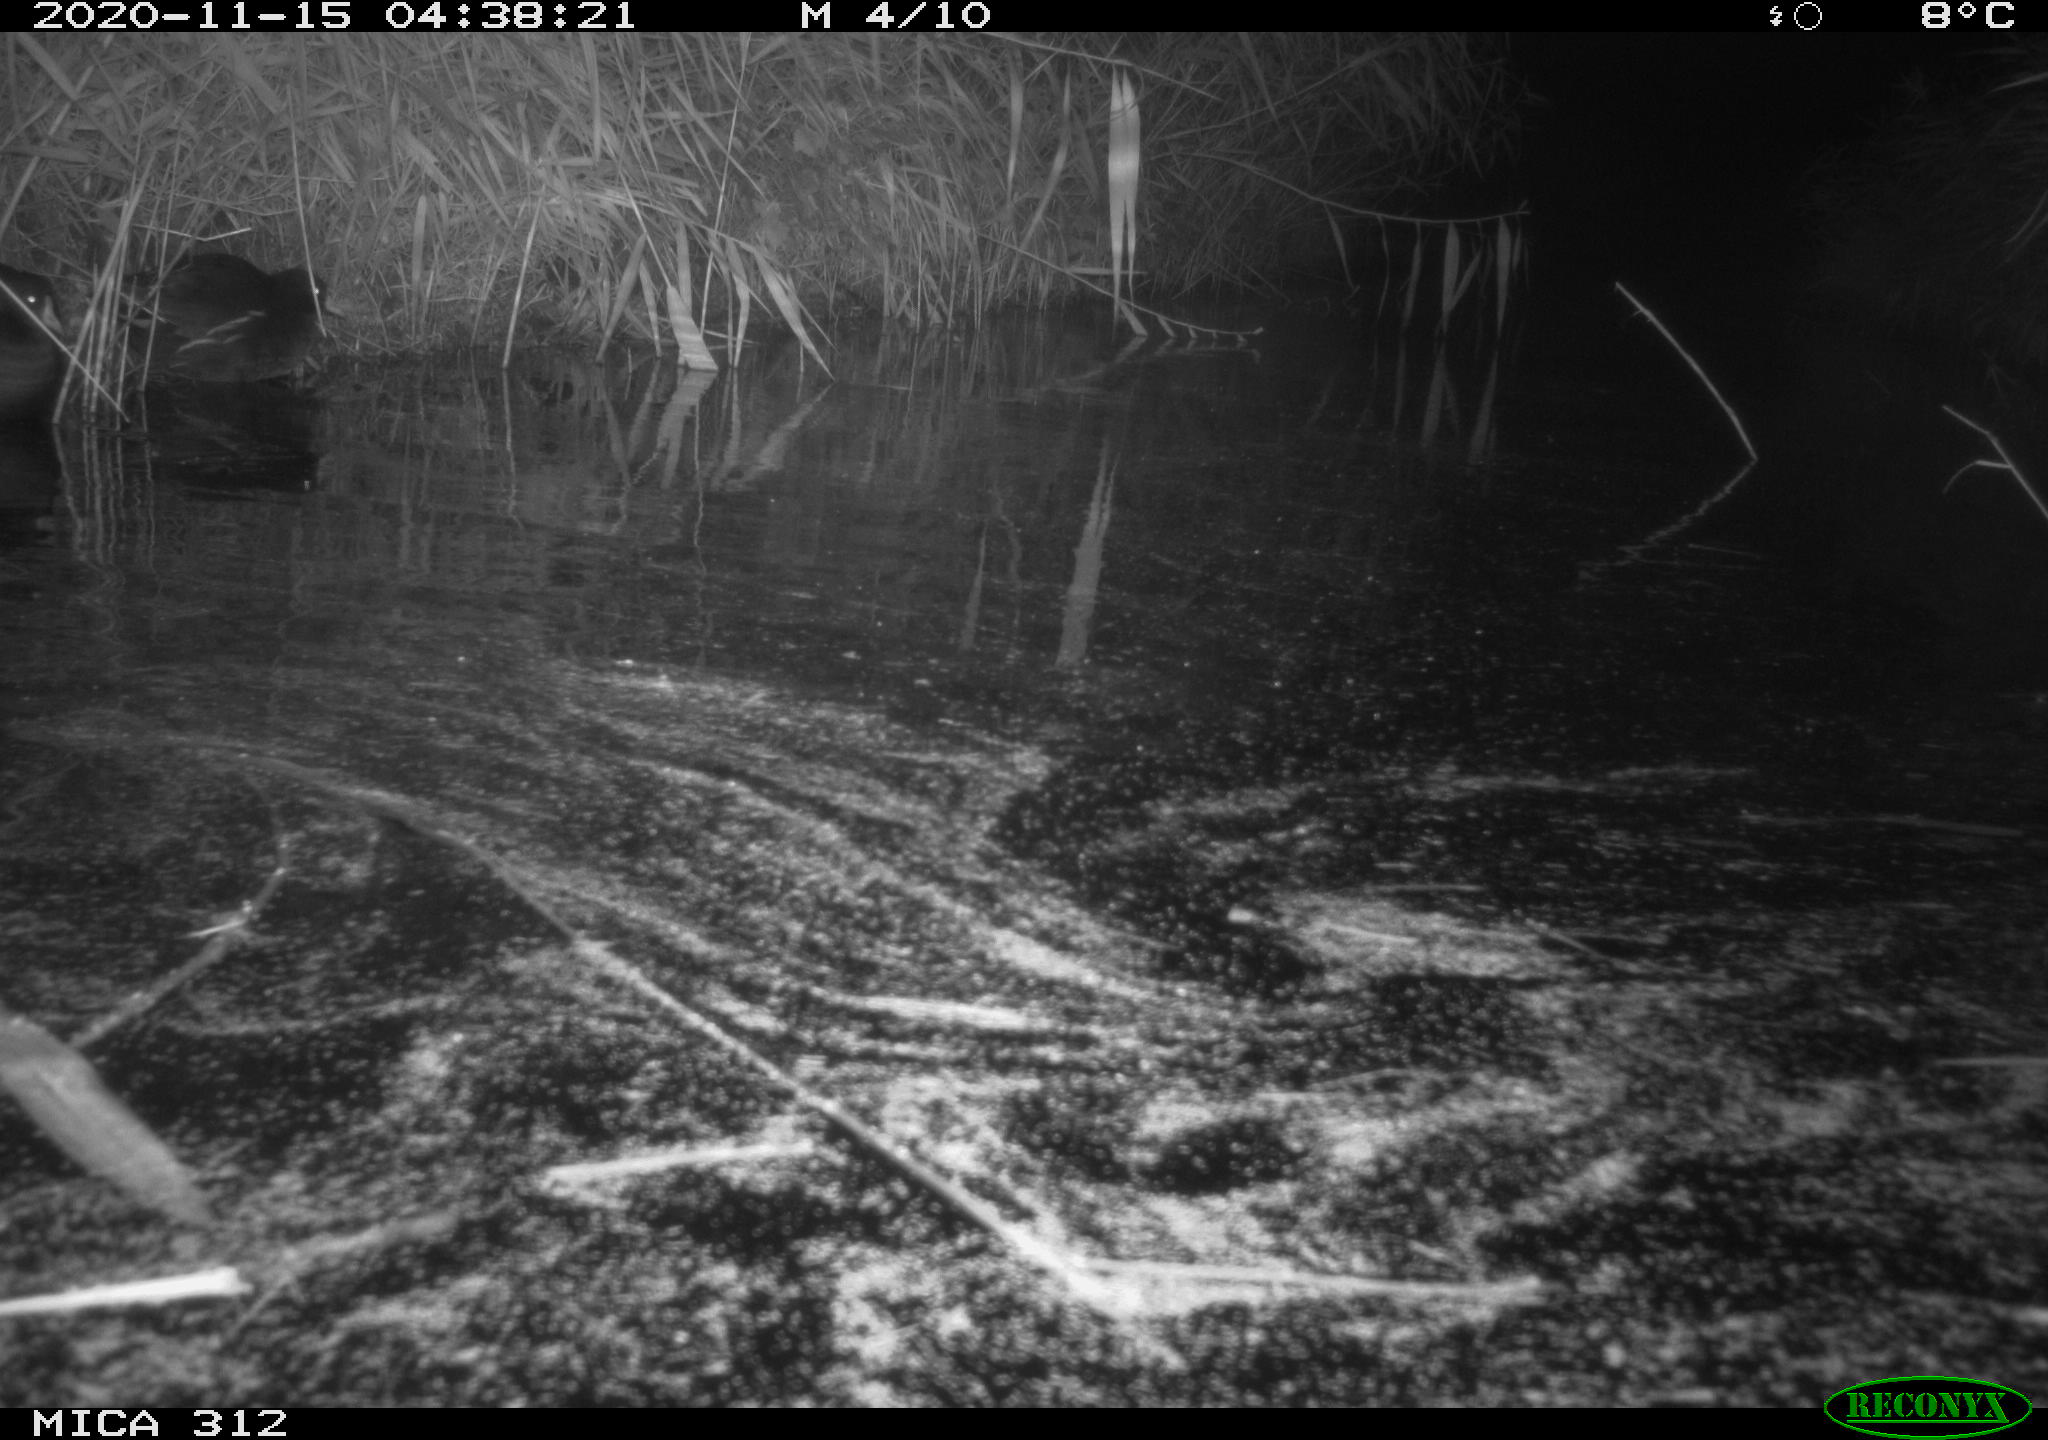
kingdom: Animalia
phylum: Chordata
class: Aves
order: Gruiformes
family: Rallidae
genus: Gallinula
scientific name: Gallinula chloropus
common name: Common moorhen
